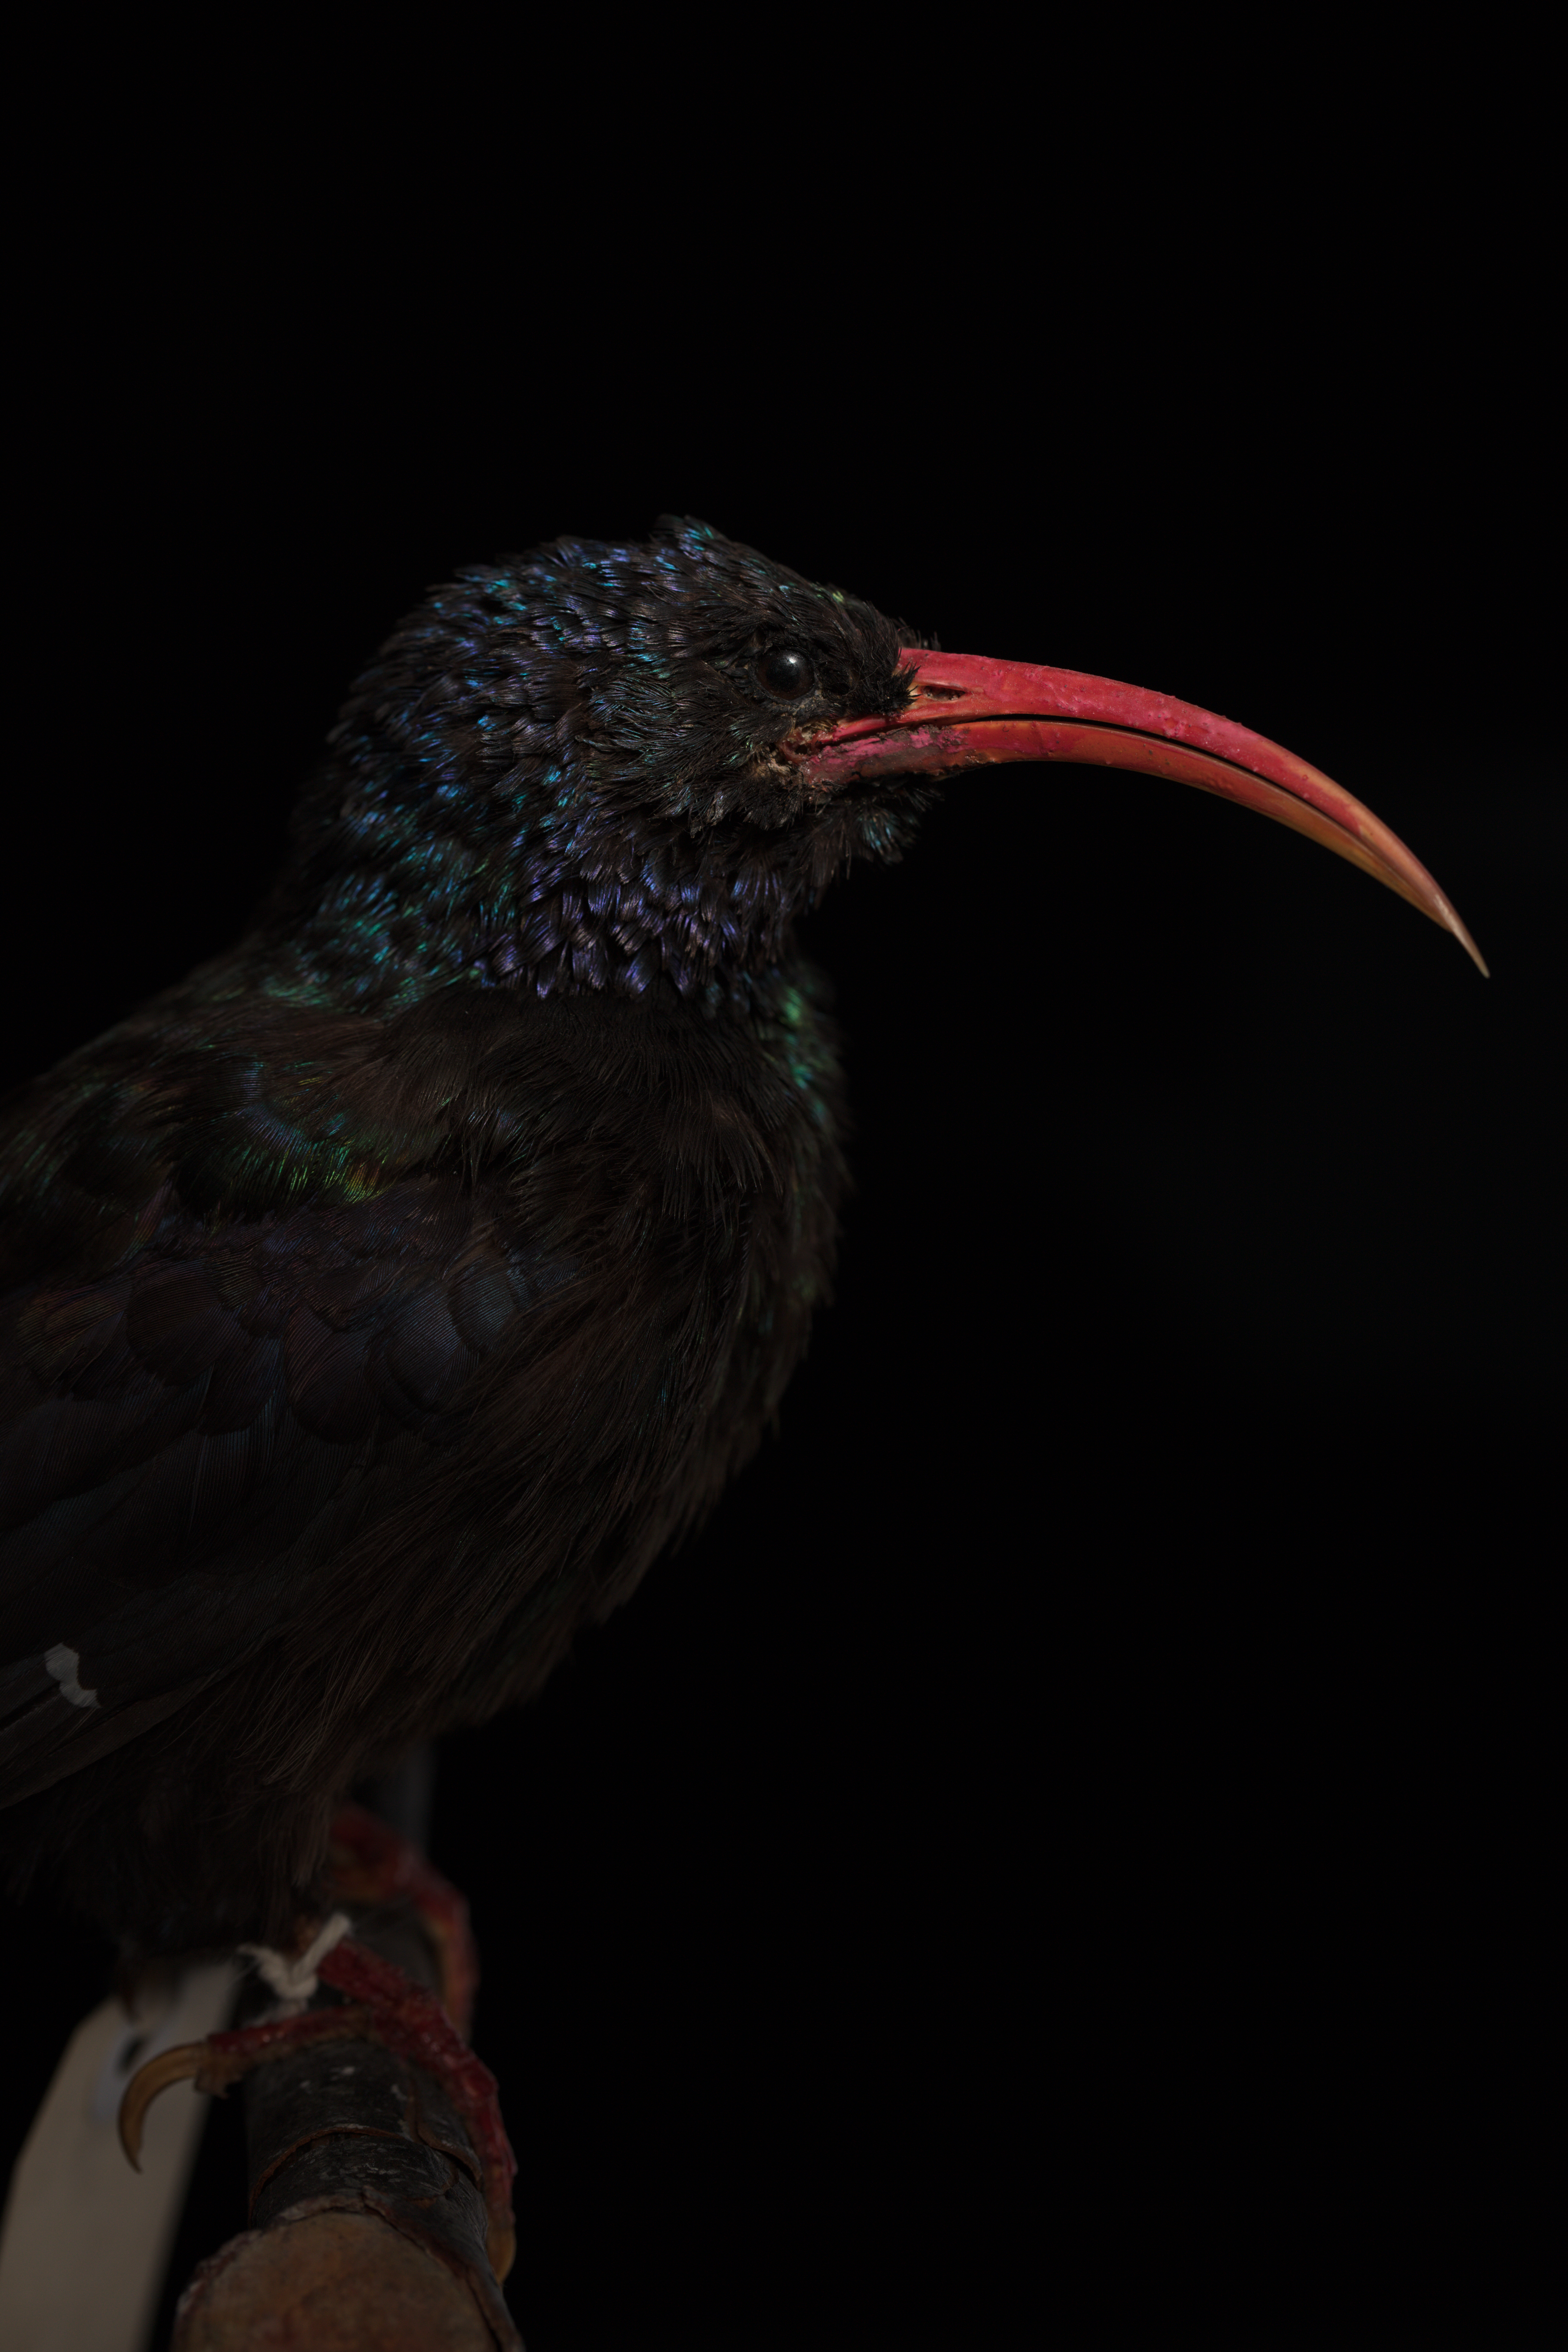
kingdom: Animalia
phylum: Chordata
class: Aves
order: Bucerotiformes
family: Phoeniculidae
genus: Phoeniculus
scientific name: Phoeniculus purpureus
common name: Green woodhoopoe
